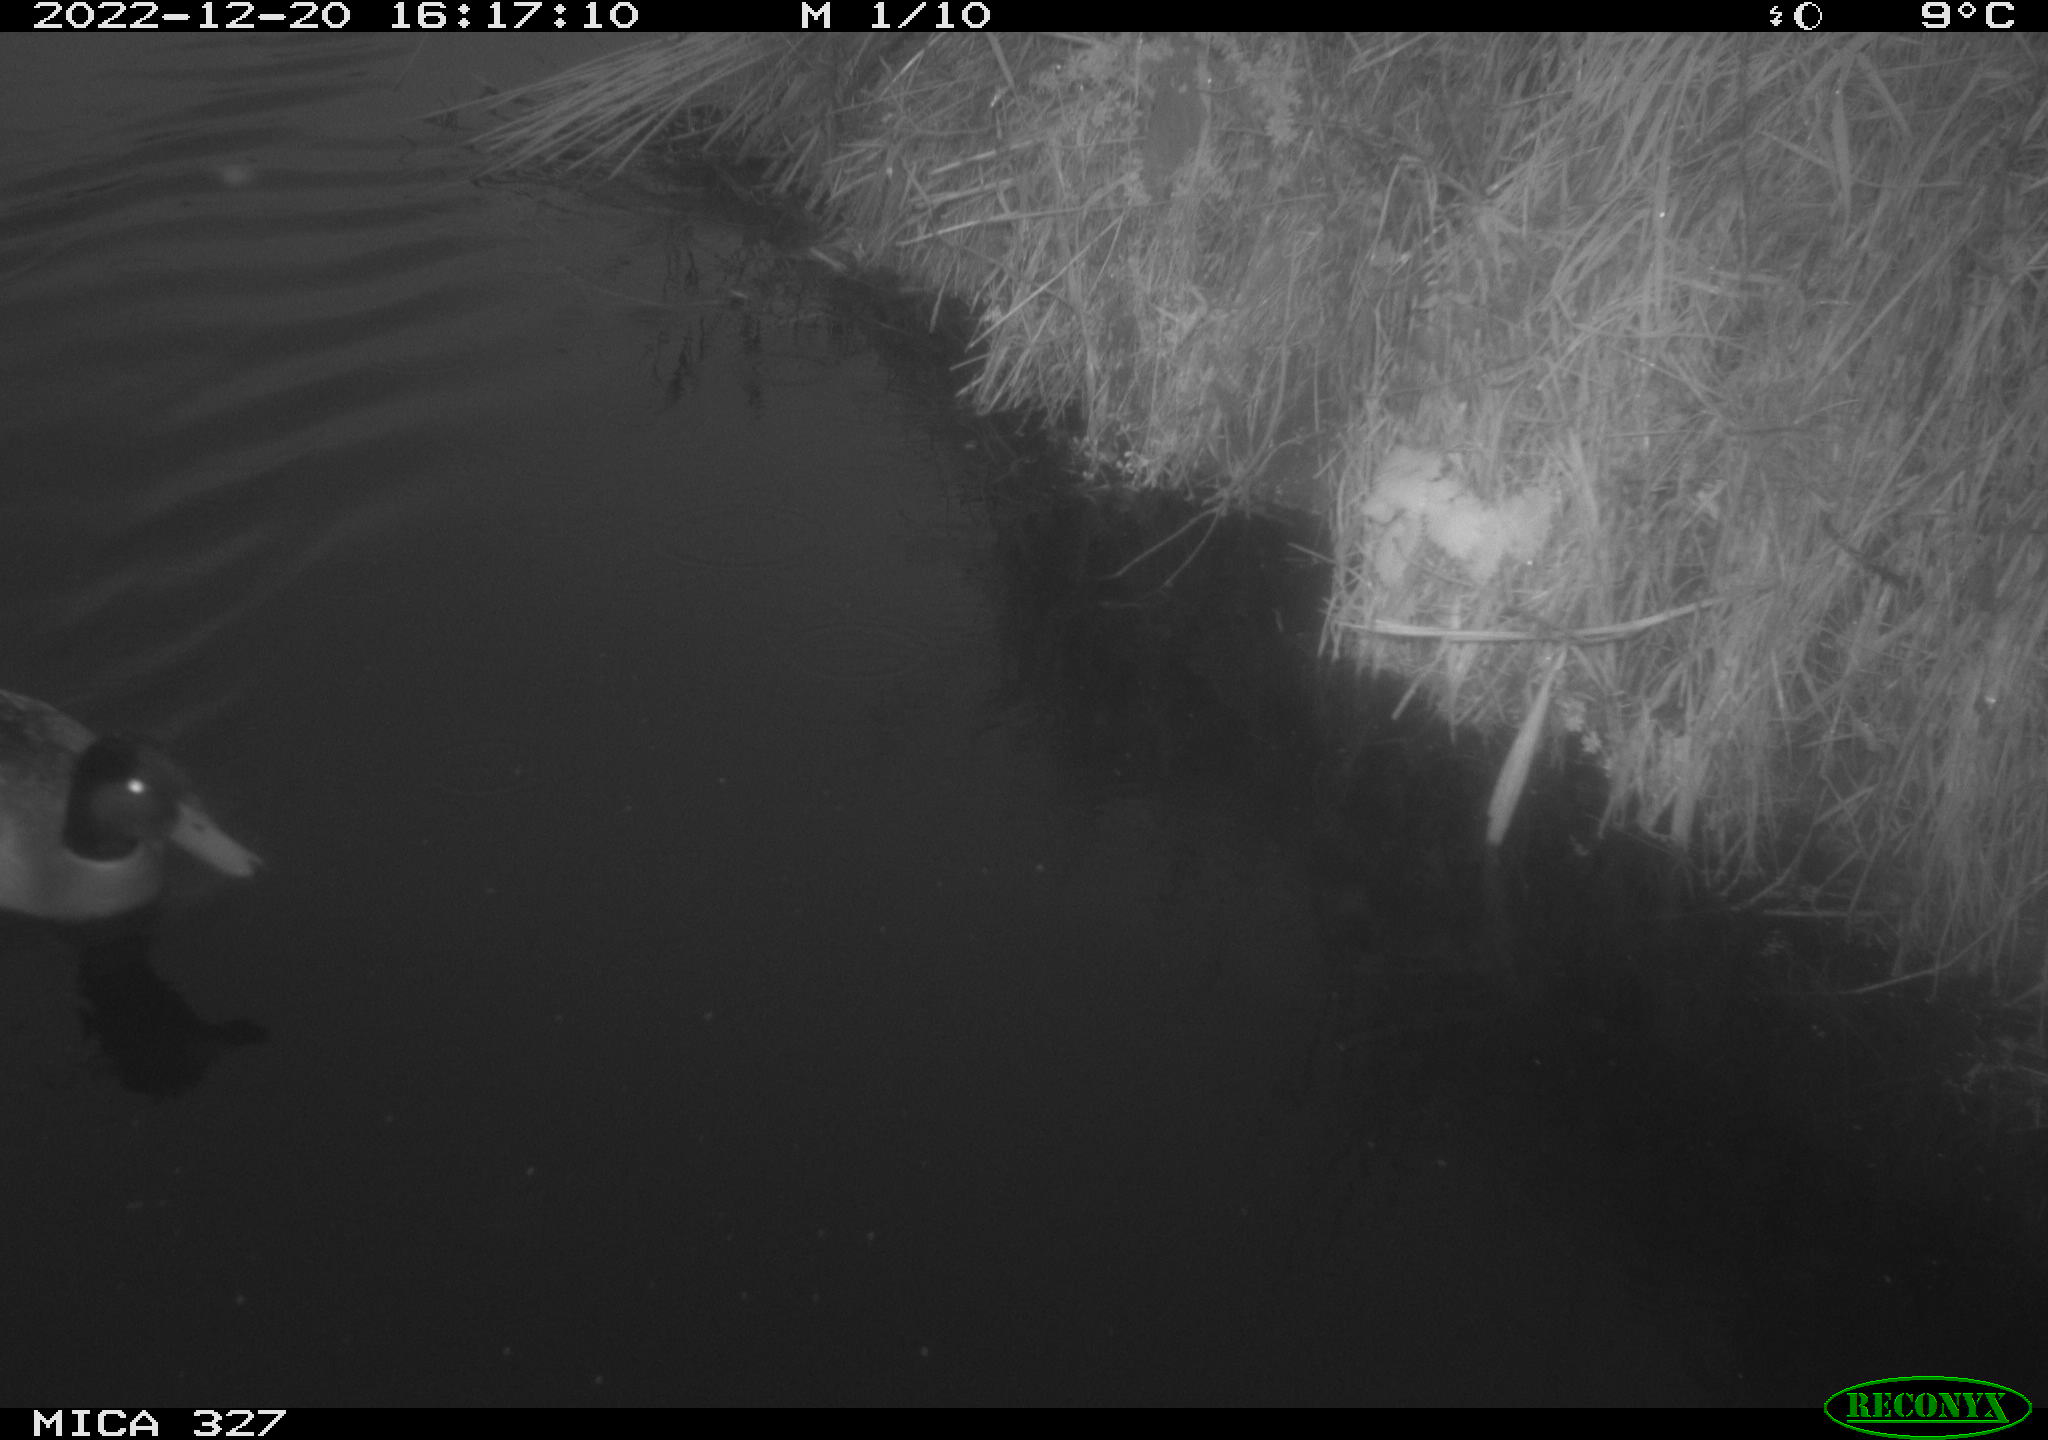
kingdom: Animalia
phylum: Chordata
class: Mammalia
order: Rodentia
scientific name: Rodentia
